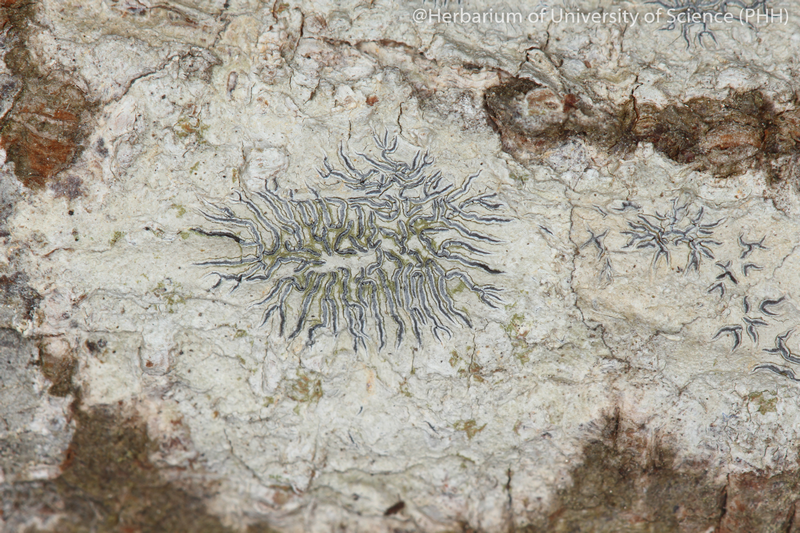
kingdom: Fungi
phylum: Ascomycota
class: Lecanoromycetes
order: Ostropales
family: Graphidaceae
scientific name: Graphidaceae
